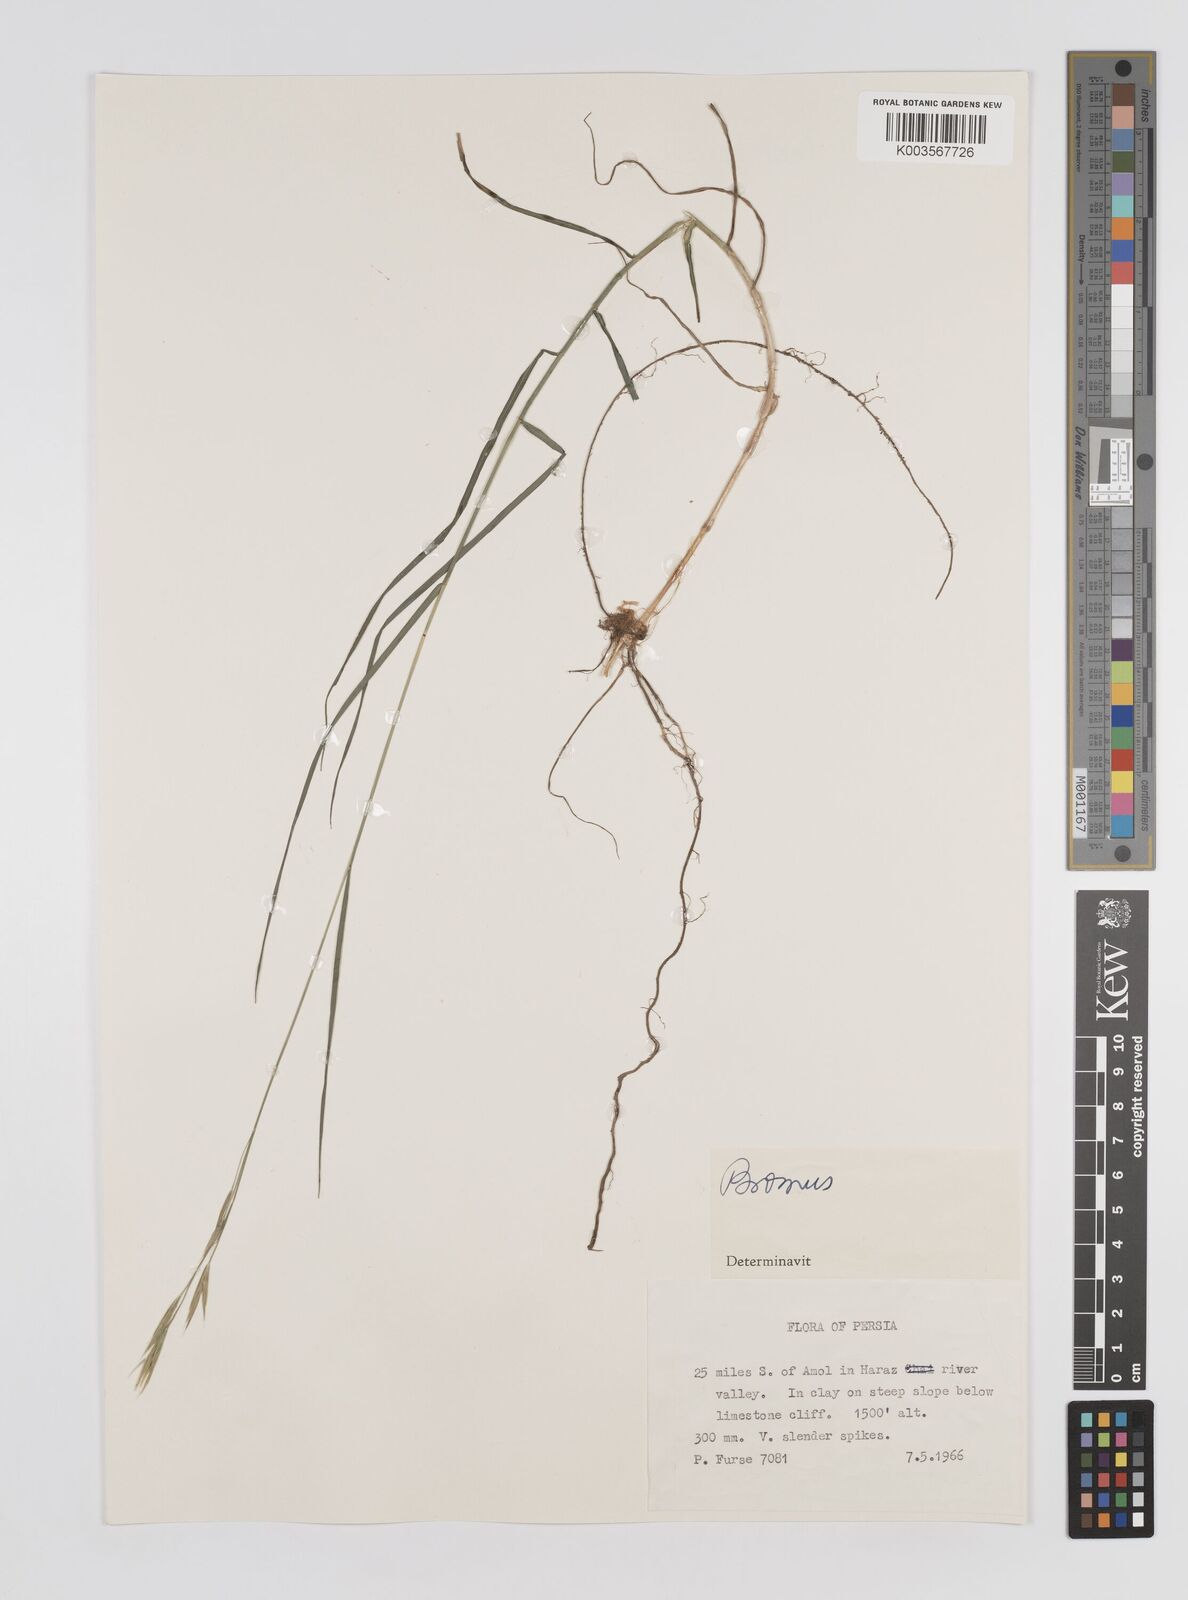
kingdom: Plantae
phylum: Tracheophyta
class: Liliopsida
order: Poales
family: Poaceae
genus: Bromus
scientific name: Bromus
